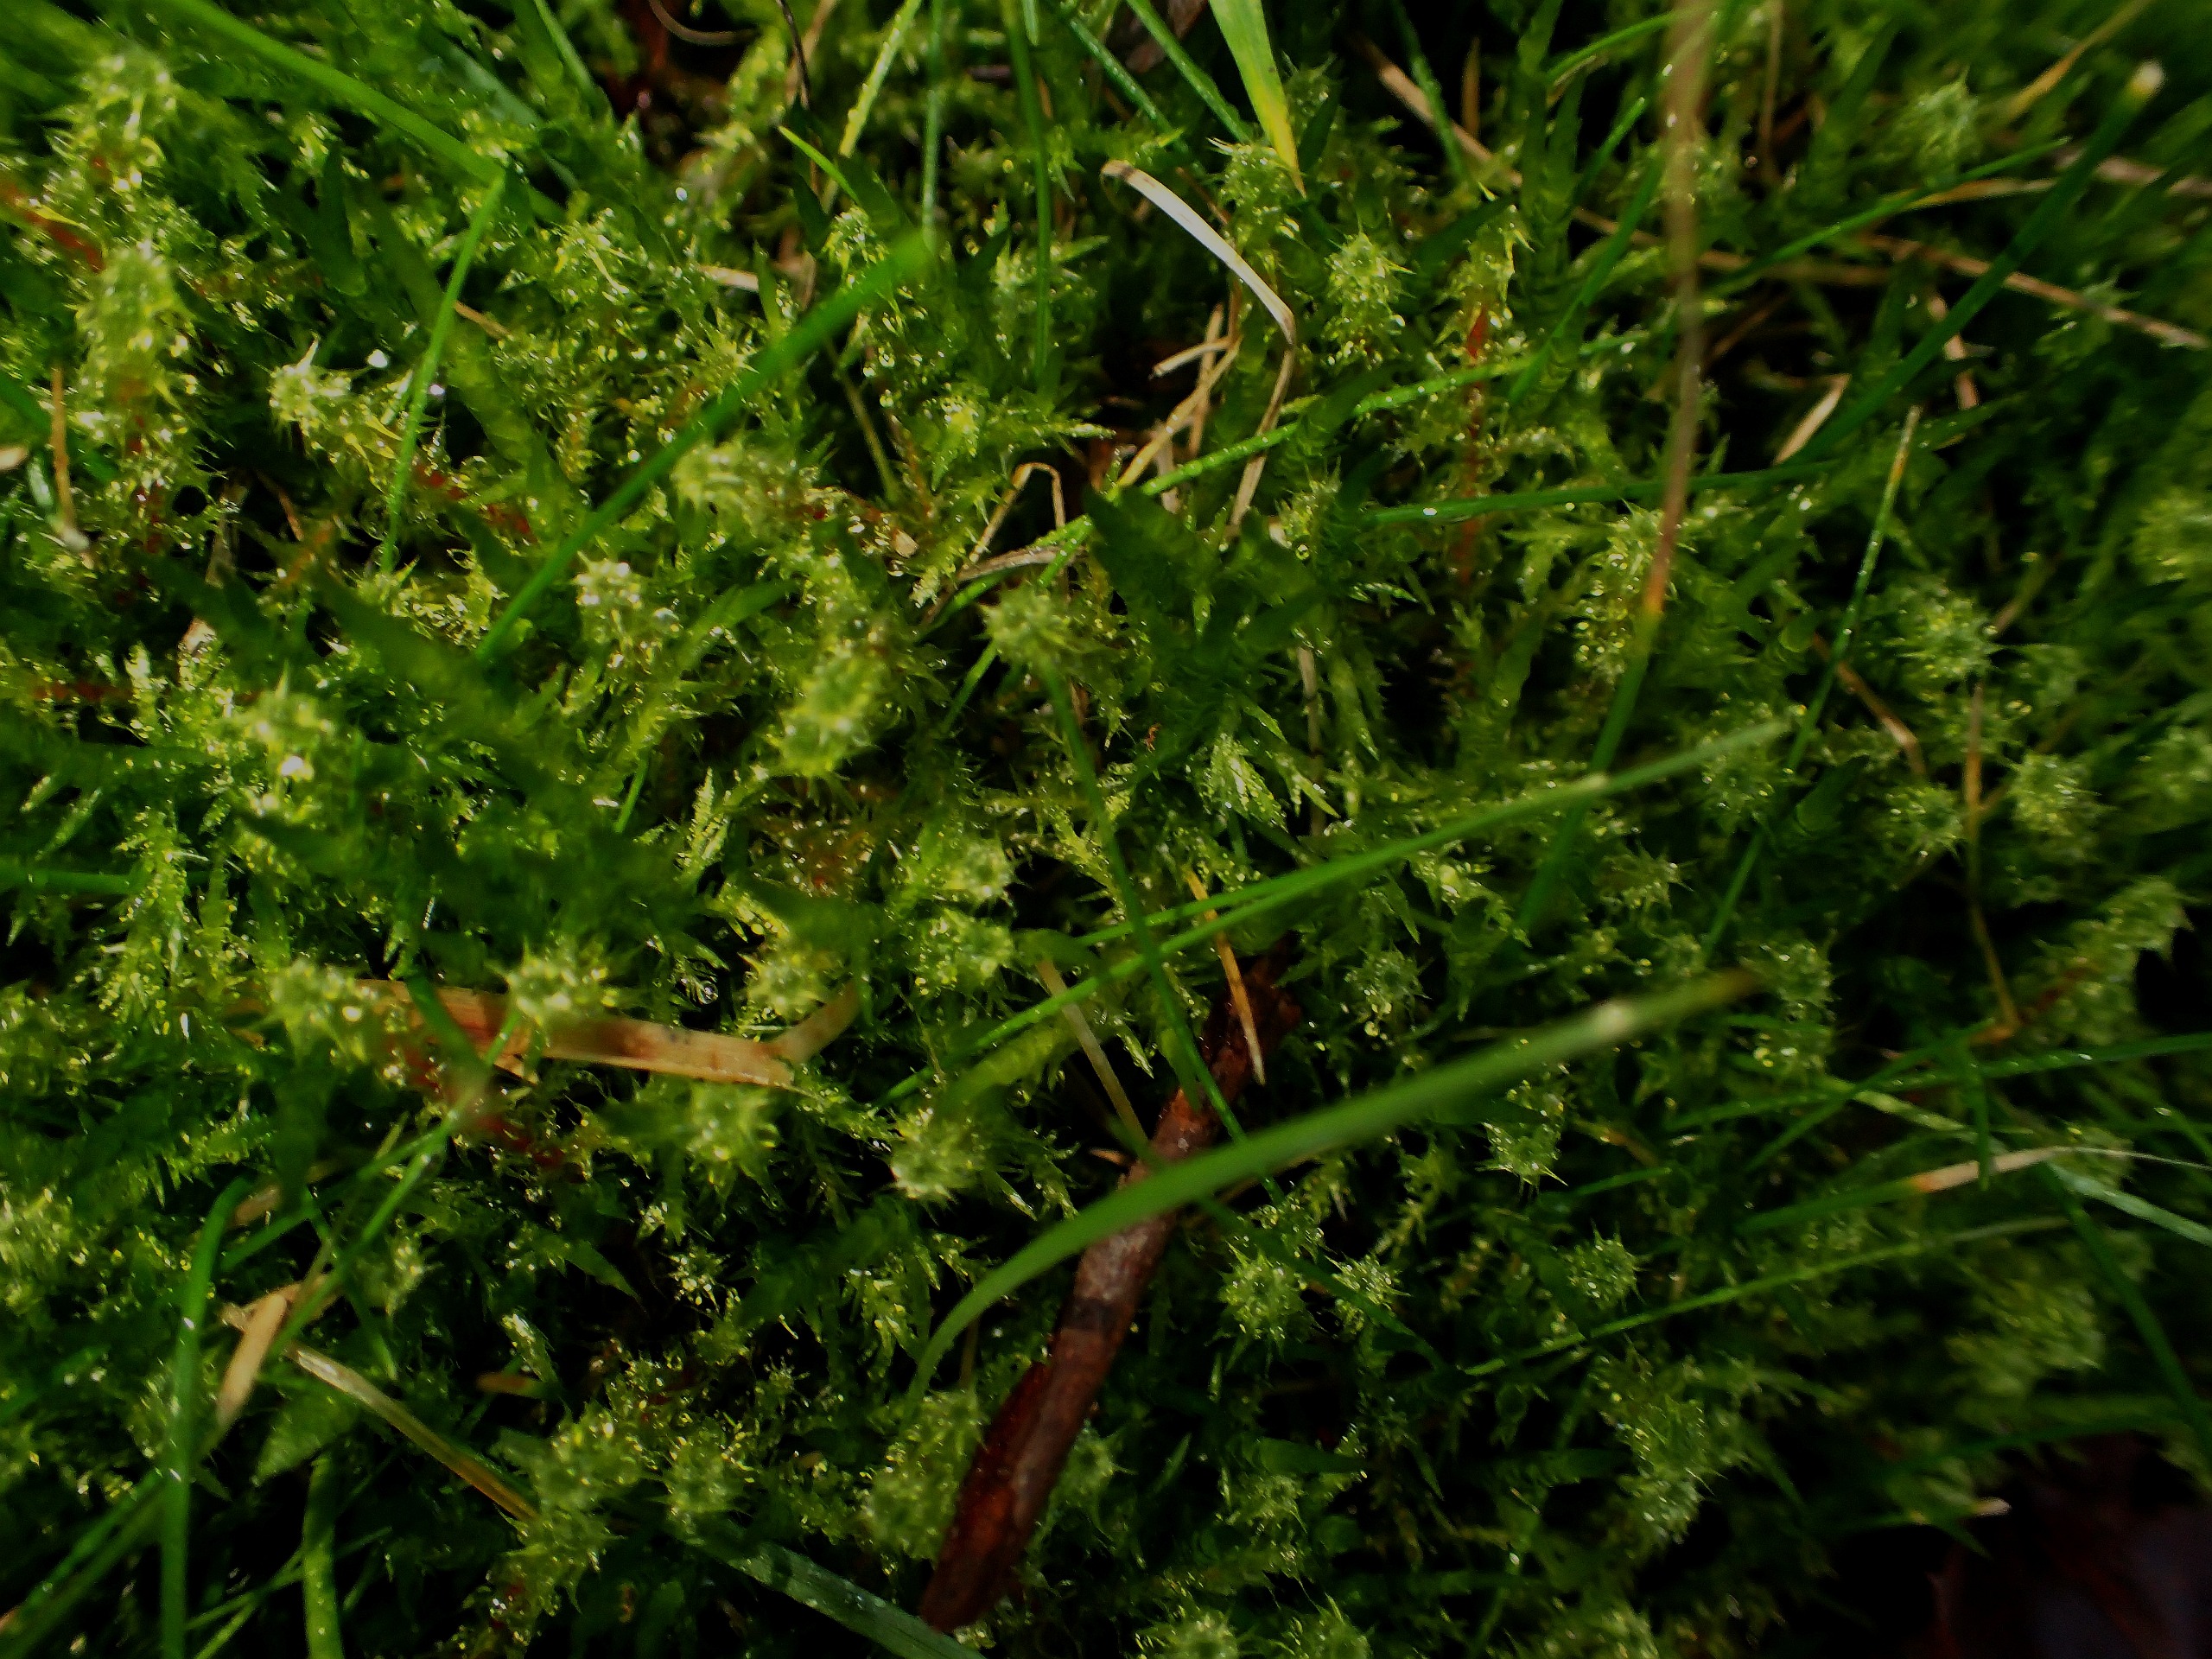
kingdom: Plantae
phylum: Bryophyta
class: Bryopsida
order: Hypnales
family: Hylocomiaceae
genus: Rhytidiadelphus
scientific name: Rhytidiadelphus squarrosus
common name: Plæne-kransemos
